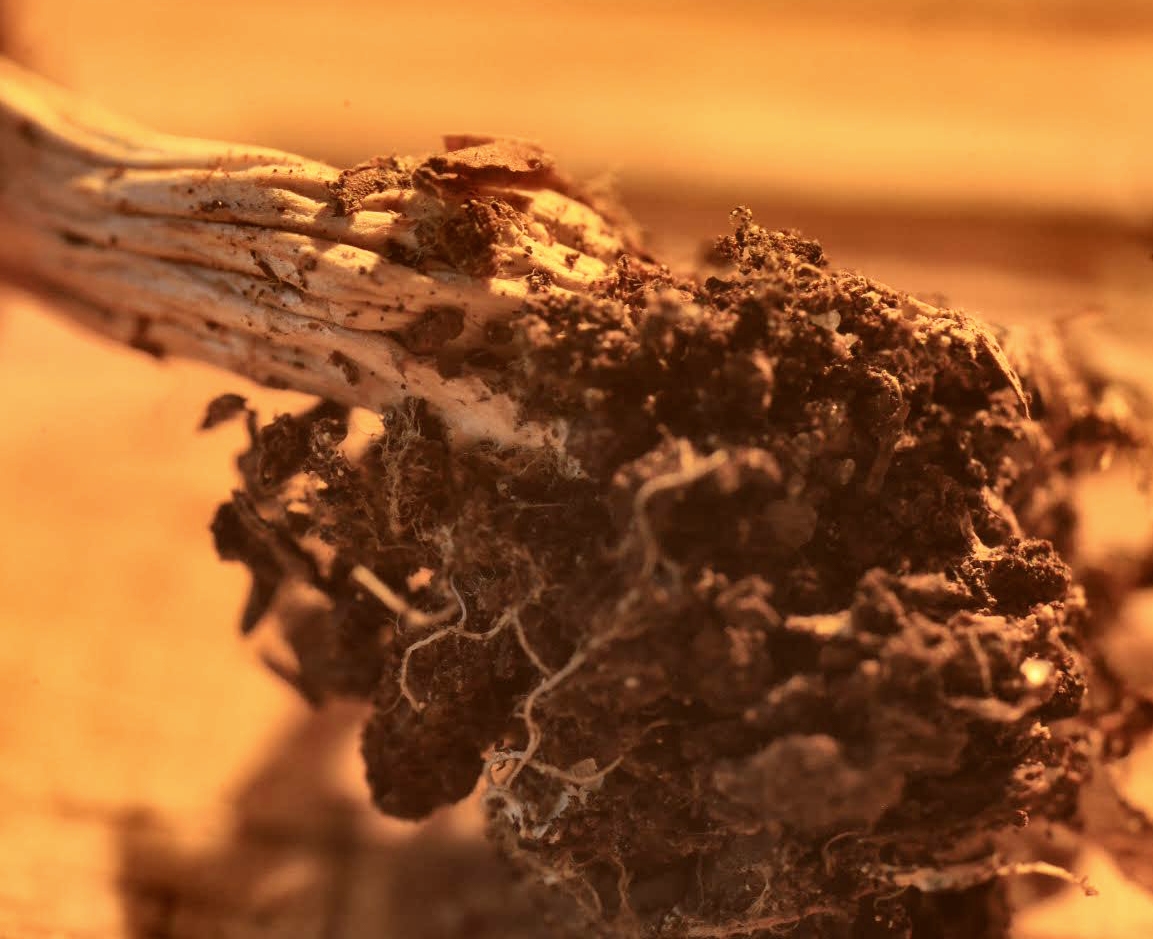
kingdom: Fungi
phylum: Basidiomycota
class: Agaricomycetes
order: Agaricales
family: Tricholomataceae
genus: Rhizocybe
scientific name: Rhizocybe vermicularis
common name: hyfestrengs-tragthat
